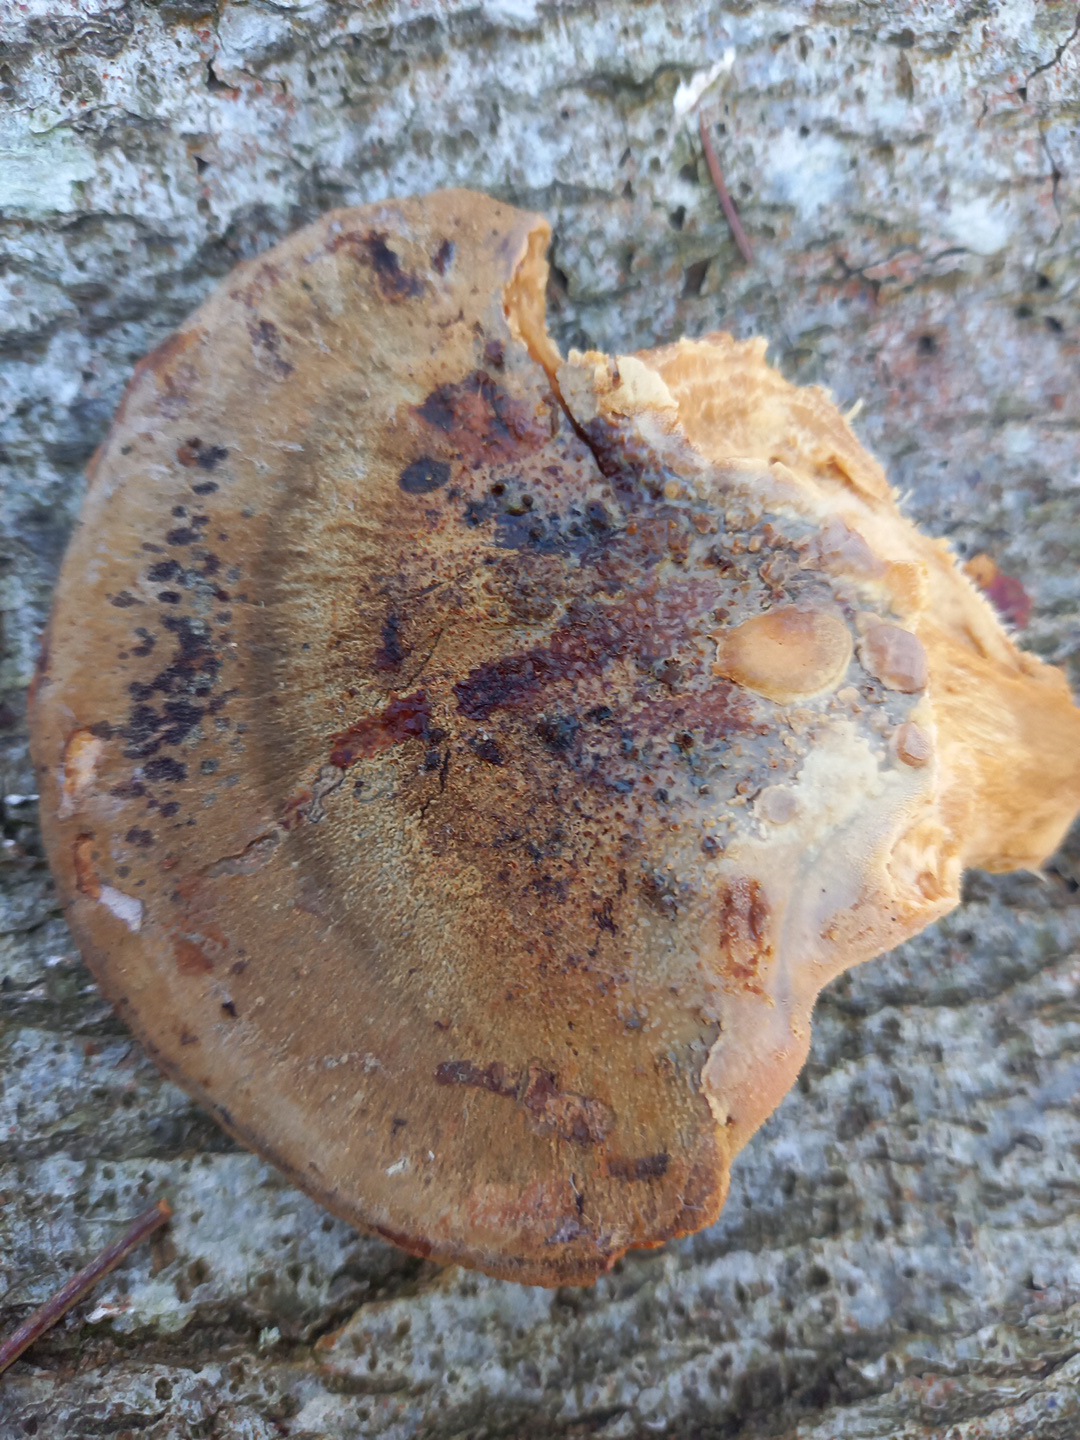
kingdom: Fungi
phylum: Basidiomycota
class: Agaricomycetes
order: Polyporales
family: Ischnodermataceae
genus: Ischnoderma
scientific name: Ischnoderma resinosum
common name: løv-tjæreporesvamp
